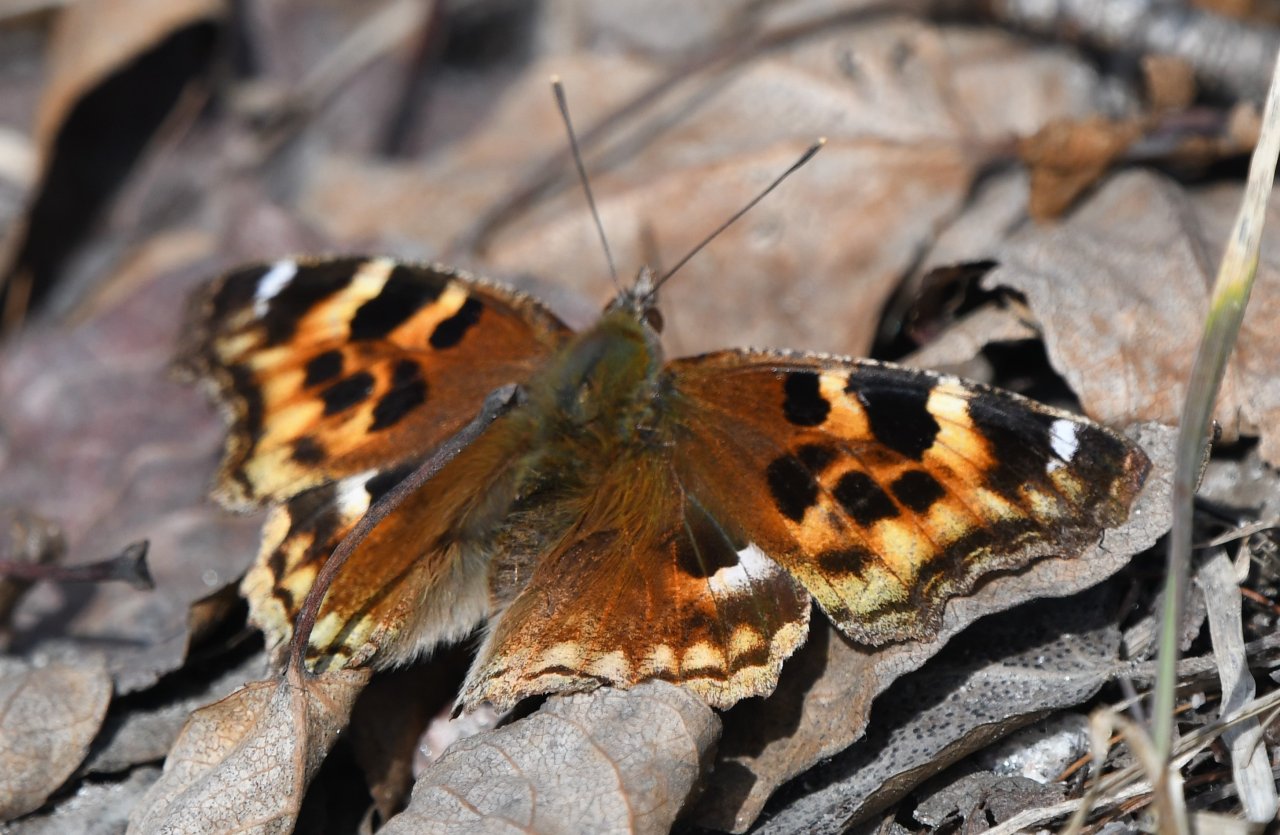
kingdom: Animalia
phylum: Arthropoda
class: Insecta
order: Lepidoptera
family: Nymphalidae
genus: Polygonia
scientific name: Polygonia vaualbum
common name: Compton Tortoiseshell
